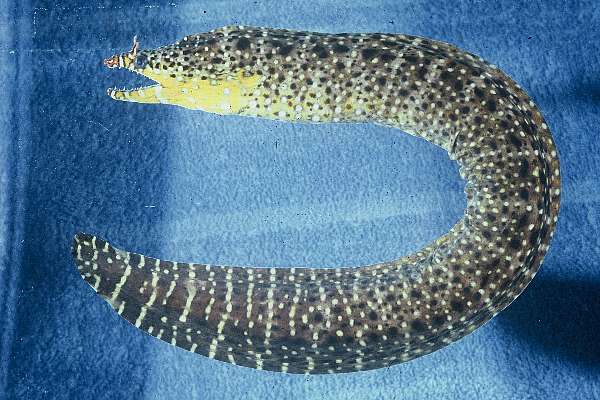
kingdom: Animalia
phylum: Chordata
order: Anguilliformes
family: Muraenidae
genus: Enchelycore
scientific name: Enchelycore pardalis
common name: Dragon moray
